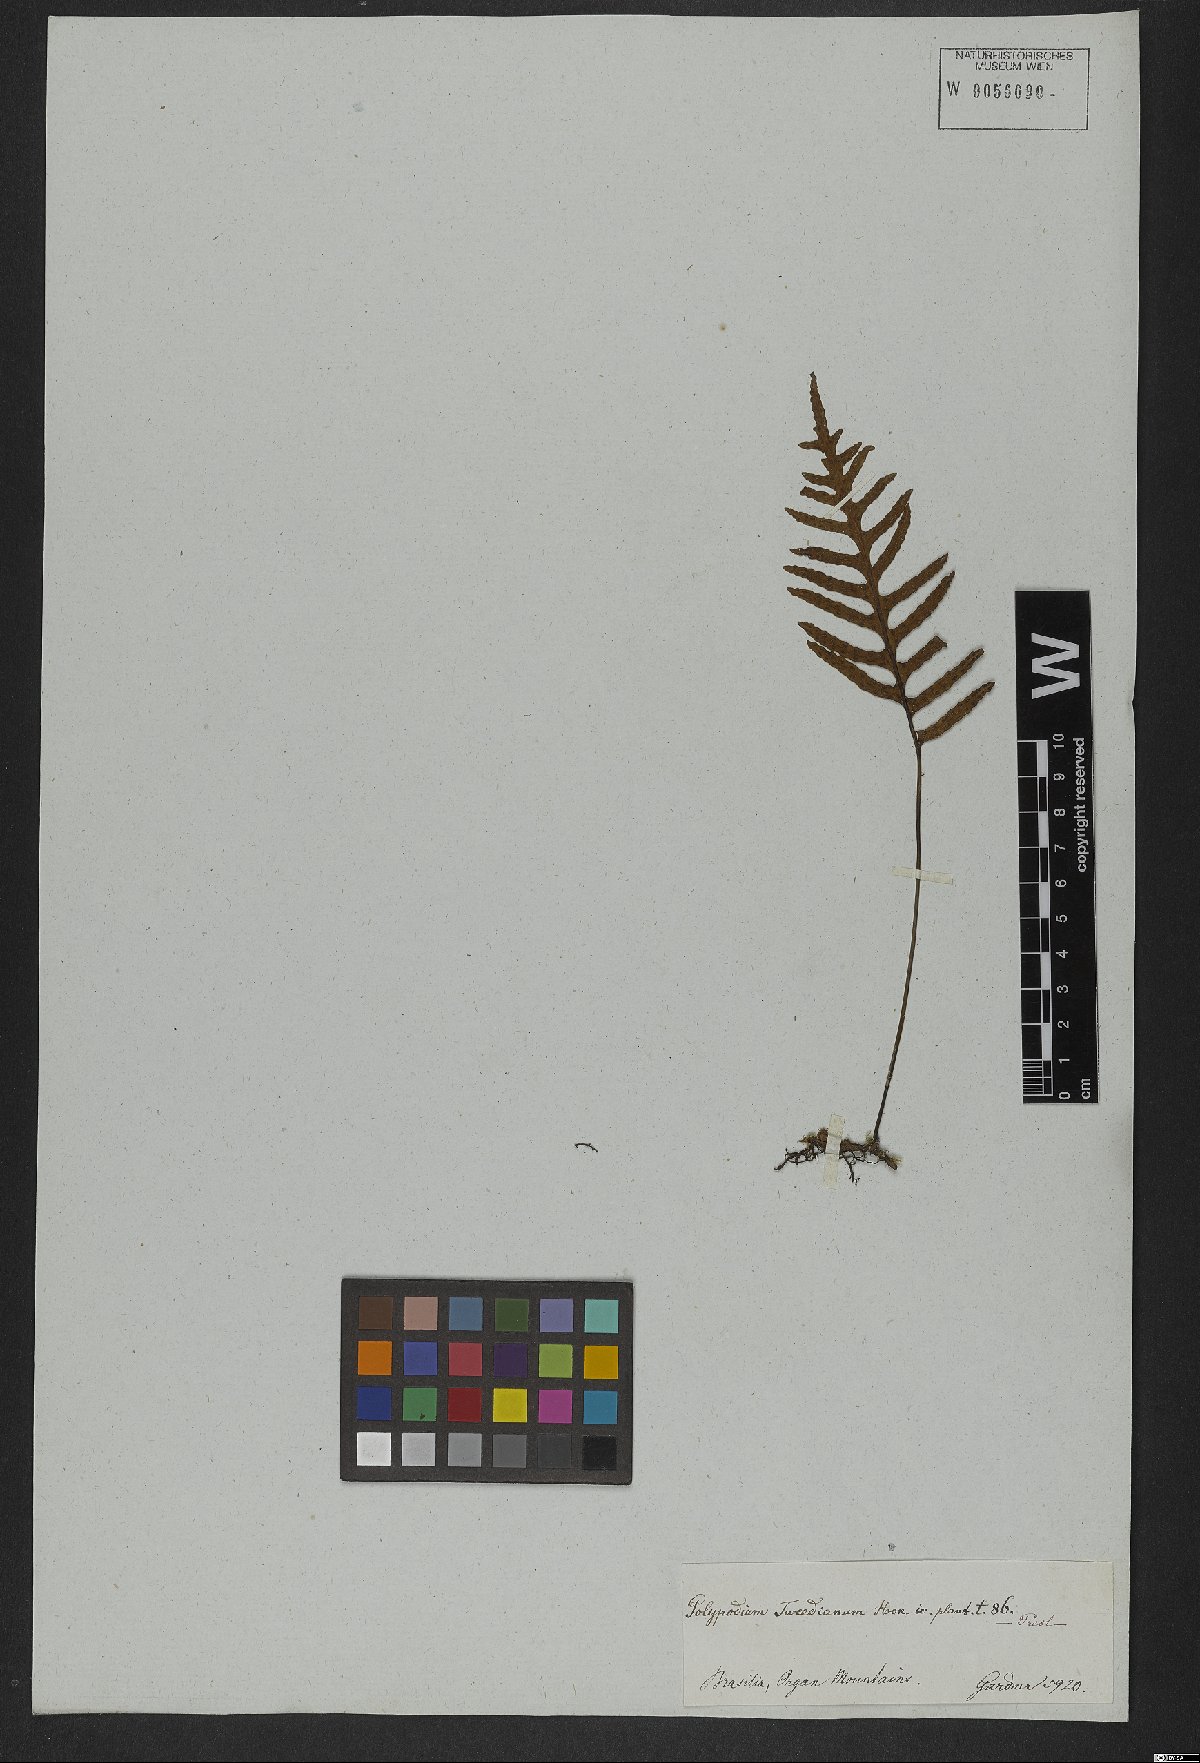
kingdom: Plantae
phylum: Tracheophyta
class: Polypodiopsida
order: Polypodiales
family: Polypodiaceae
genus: Pleopeltis
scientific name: Pleopeltis tweediana
